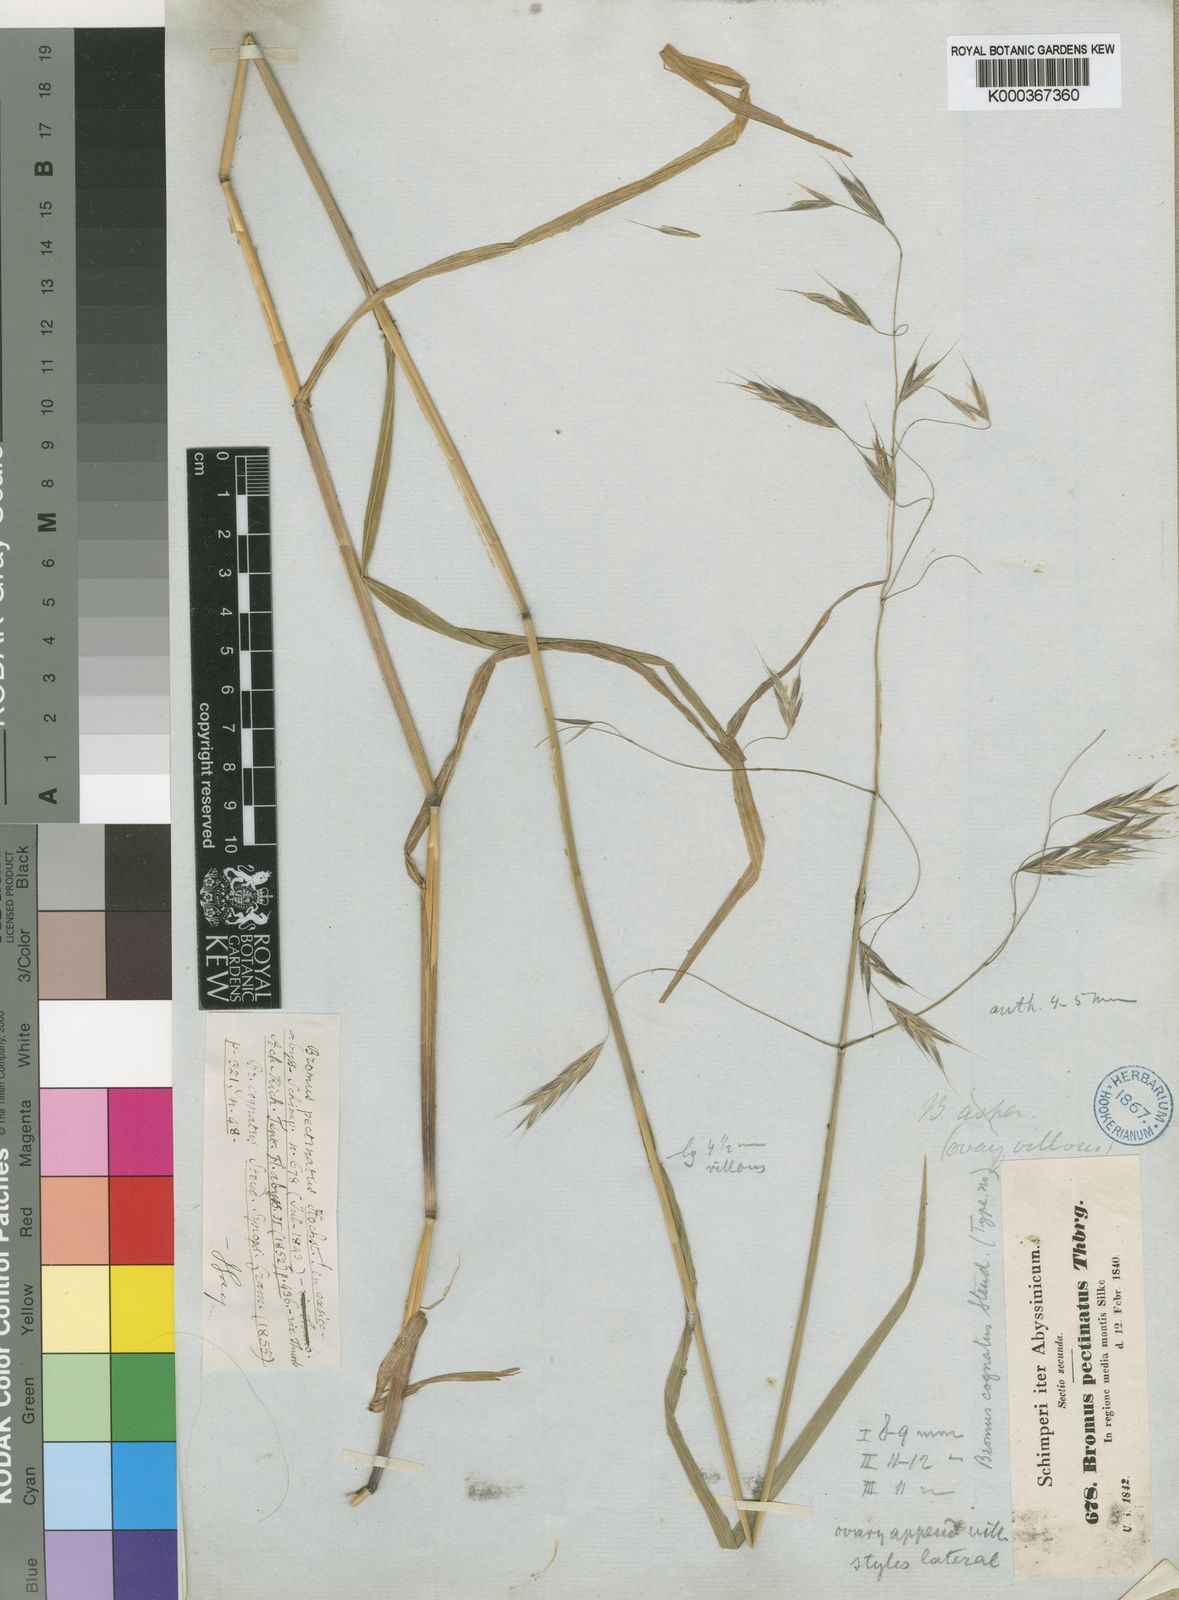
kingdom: Plantae
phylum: Tracheophyta
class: Liliopsida
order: Poales
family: Poaceae
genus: Bromus
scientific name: Bromus leptoclados
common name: Mountain bromegrass
